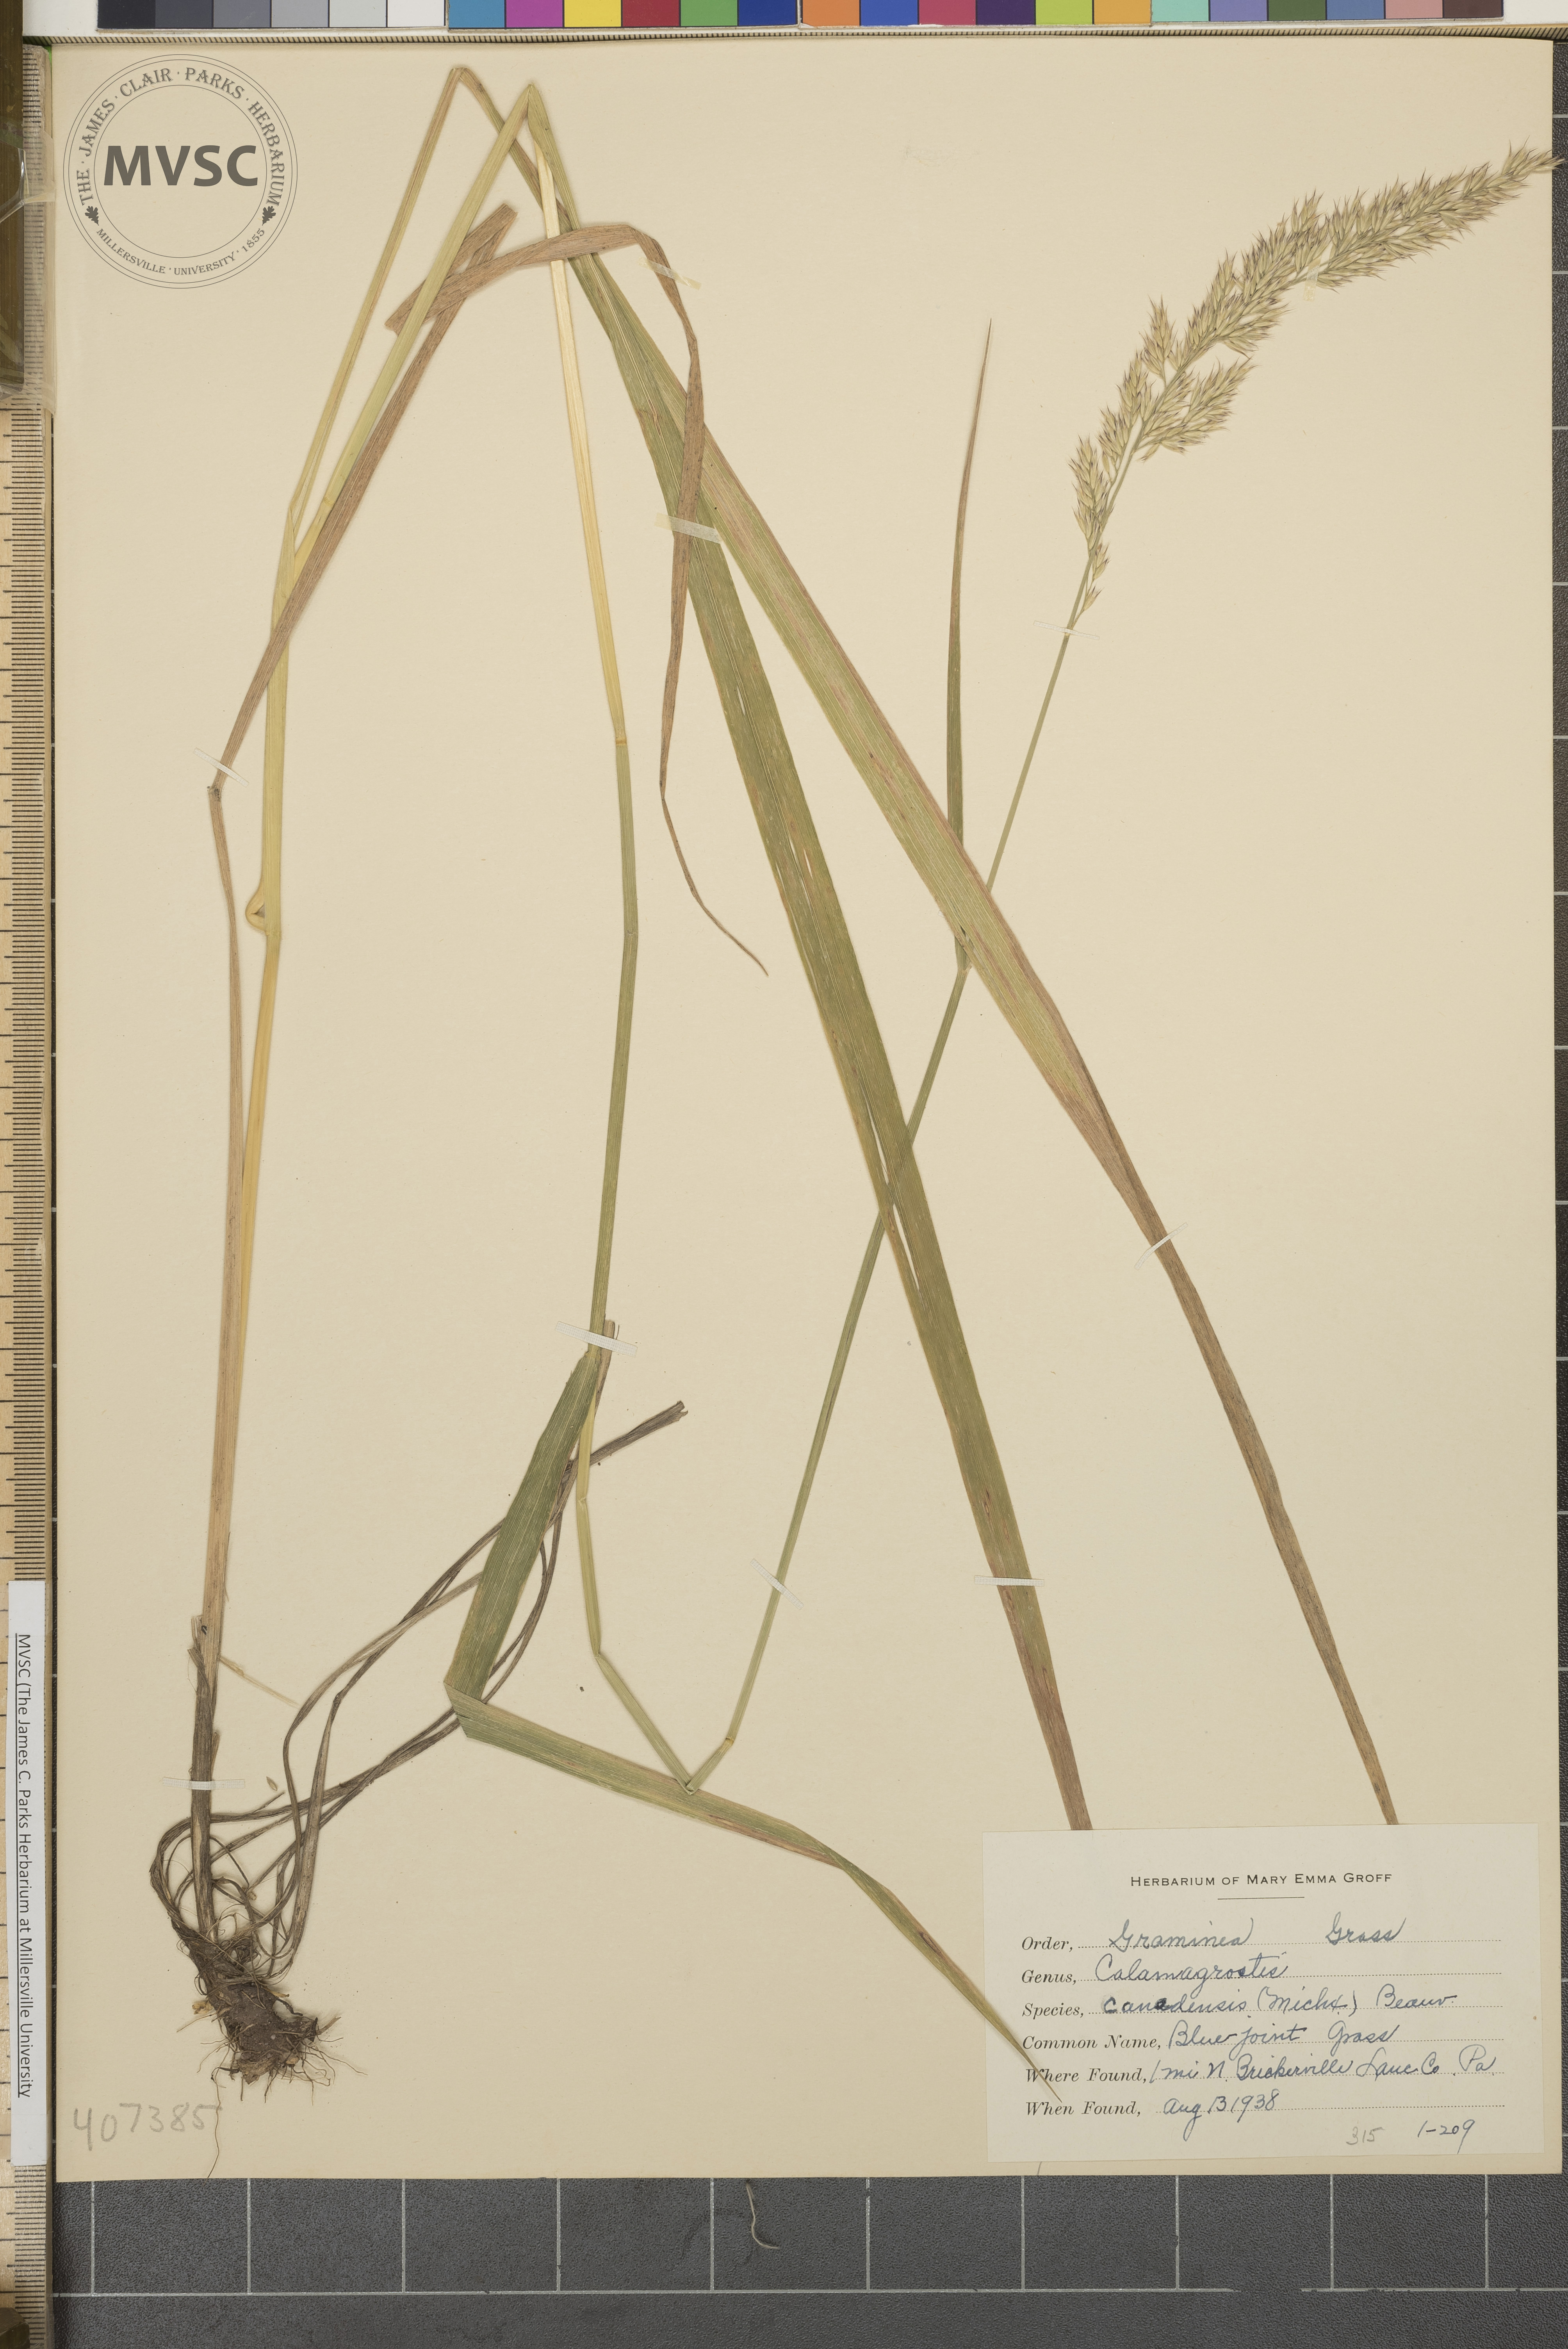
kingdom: Plantae
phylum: Tracheophyta
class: Liliopsida
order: Poales
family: Poaceae
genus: Calamagrostis
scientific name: Calamagrostis canadensis
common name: Canada bluejoint
